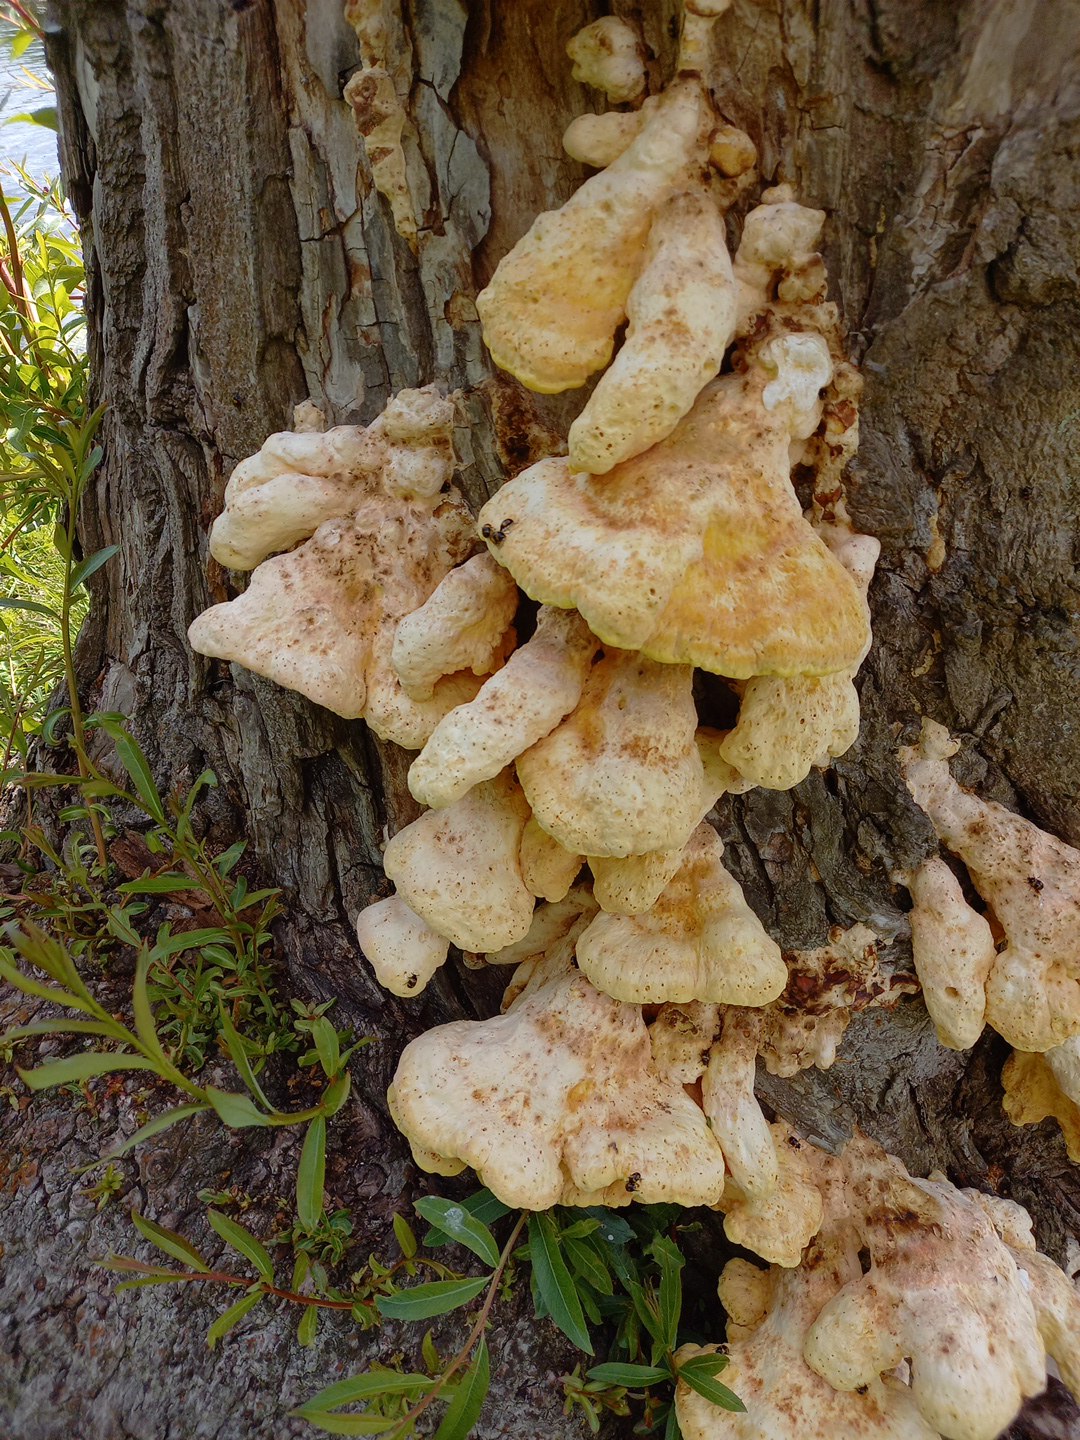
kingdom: Fungi
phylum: Basidiomycota
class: Agaricomycetes
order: Polyporales
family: Laetiporaceae
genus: Laetiporus
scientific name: Laetiporus sulphureus
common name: svovlporesvamp
